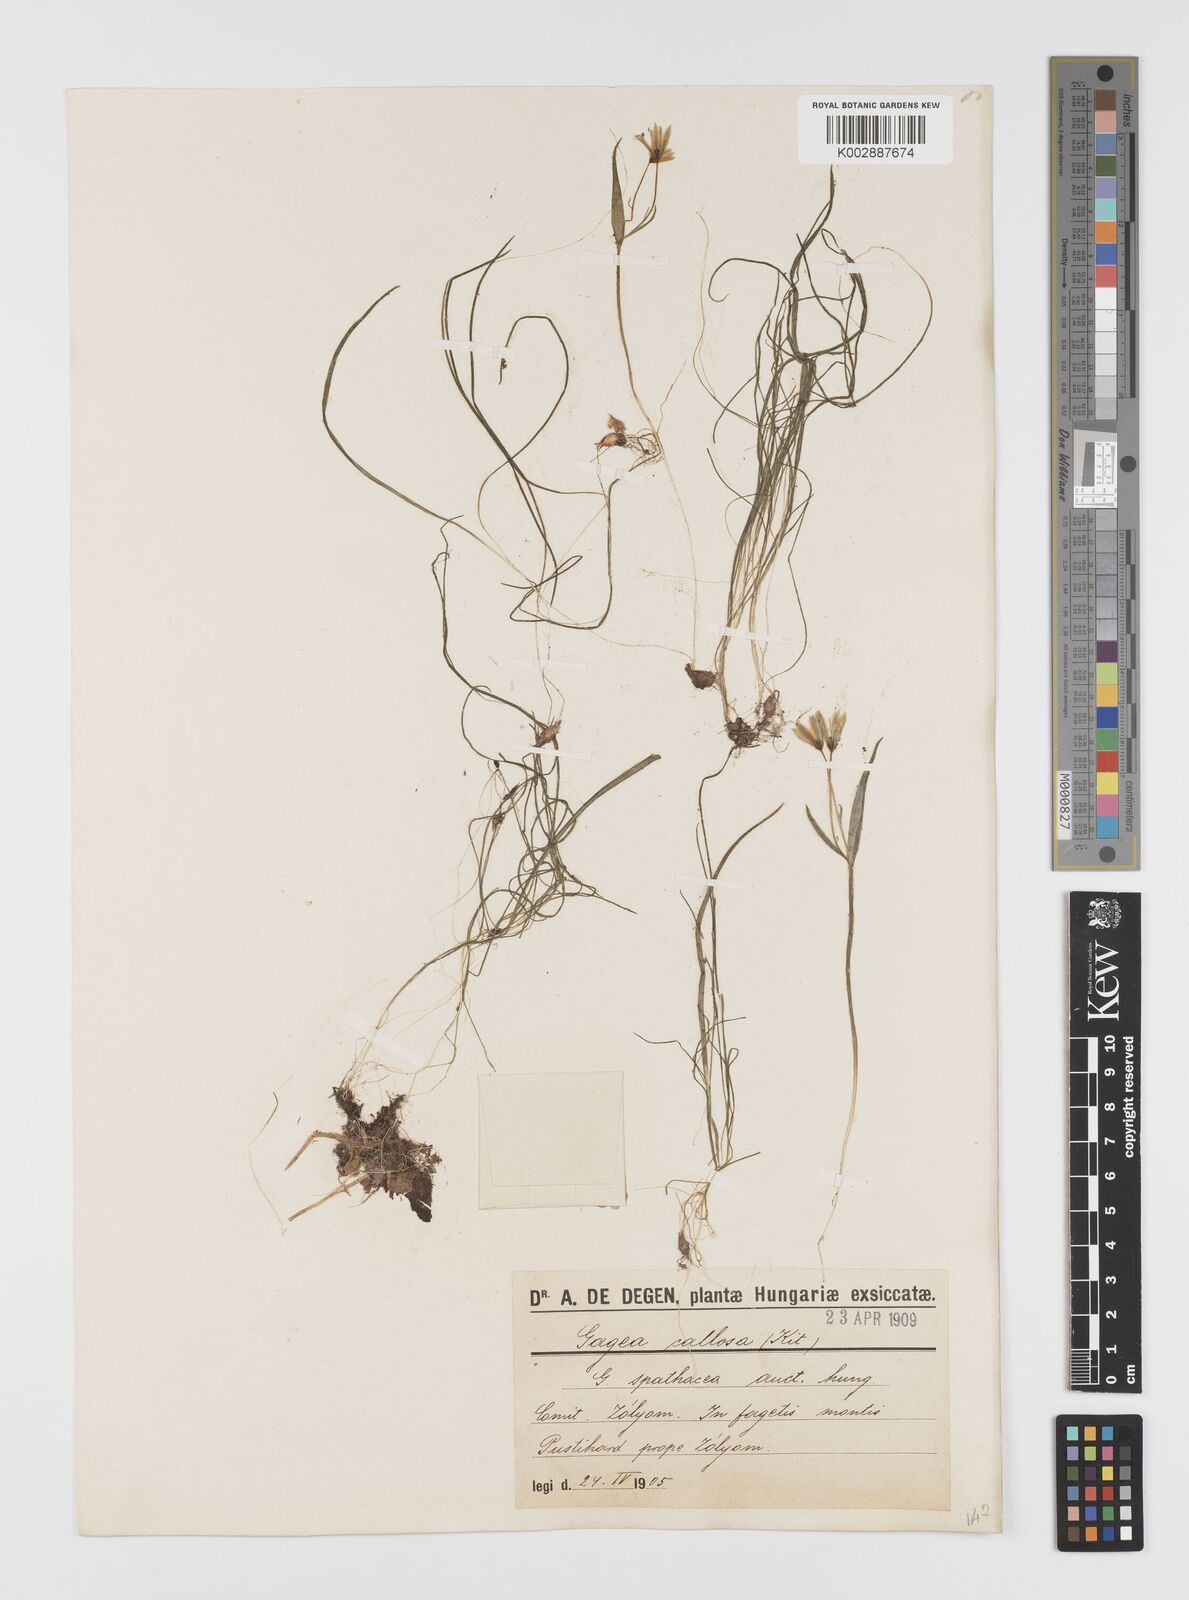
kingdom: Plantae
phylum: Tracheophyta
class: Liliopsida
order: Liliales
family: Liliaceae
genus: Gagea
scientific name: Gagea
